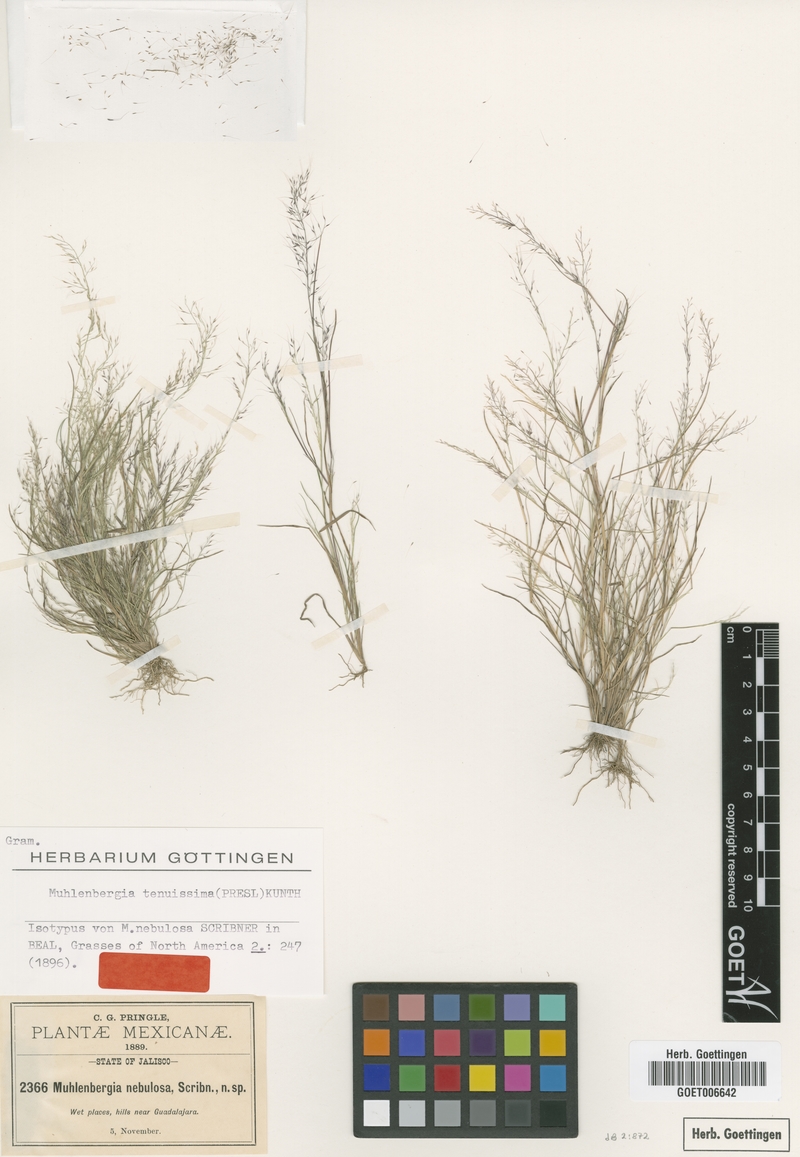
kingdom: Plantae
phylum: Tracheophyta
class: Liliopsida
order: Poales
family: Poaceae
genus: Muhlenbergia
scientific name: Muhlenbergia tenuissima
